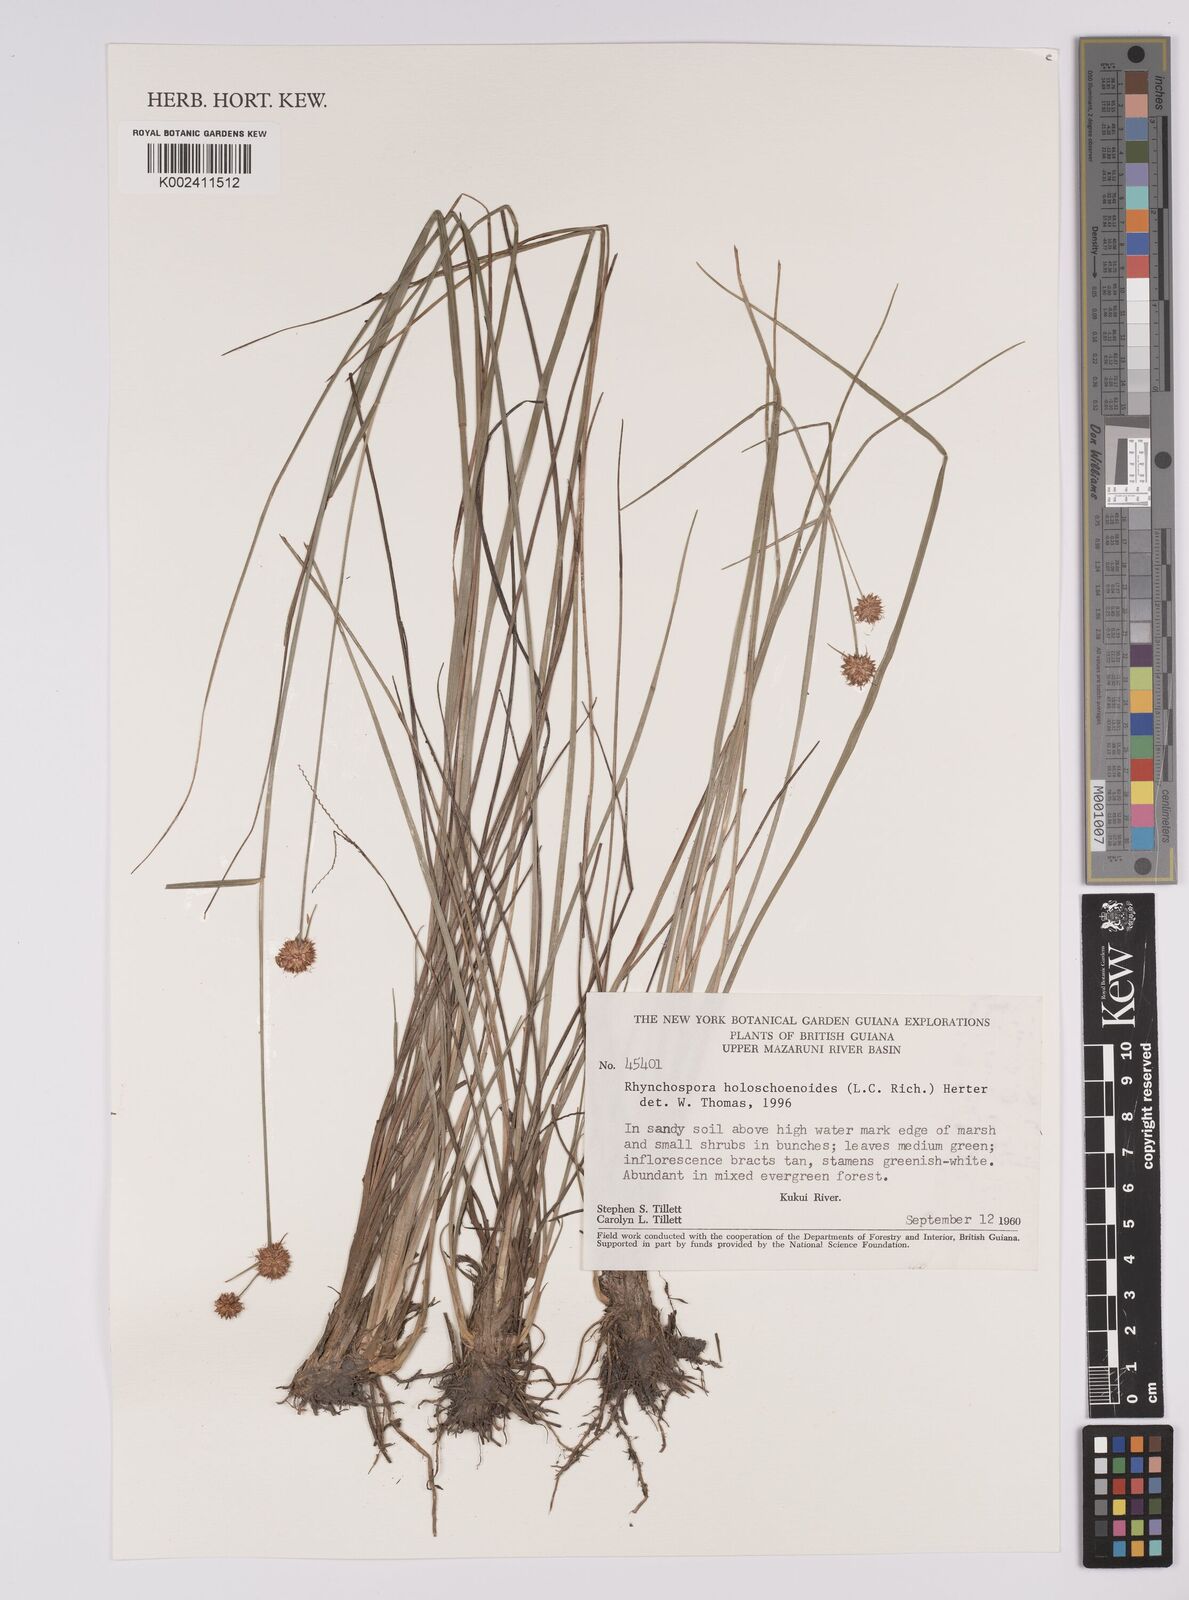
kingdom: Plantae
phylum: Tracheophyta
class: Liliopsida
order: Poales
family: Cyperaceae
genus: Rhynchospora
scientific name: Rhynchospora holoschoenoides
